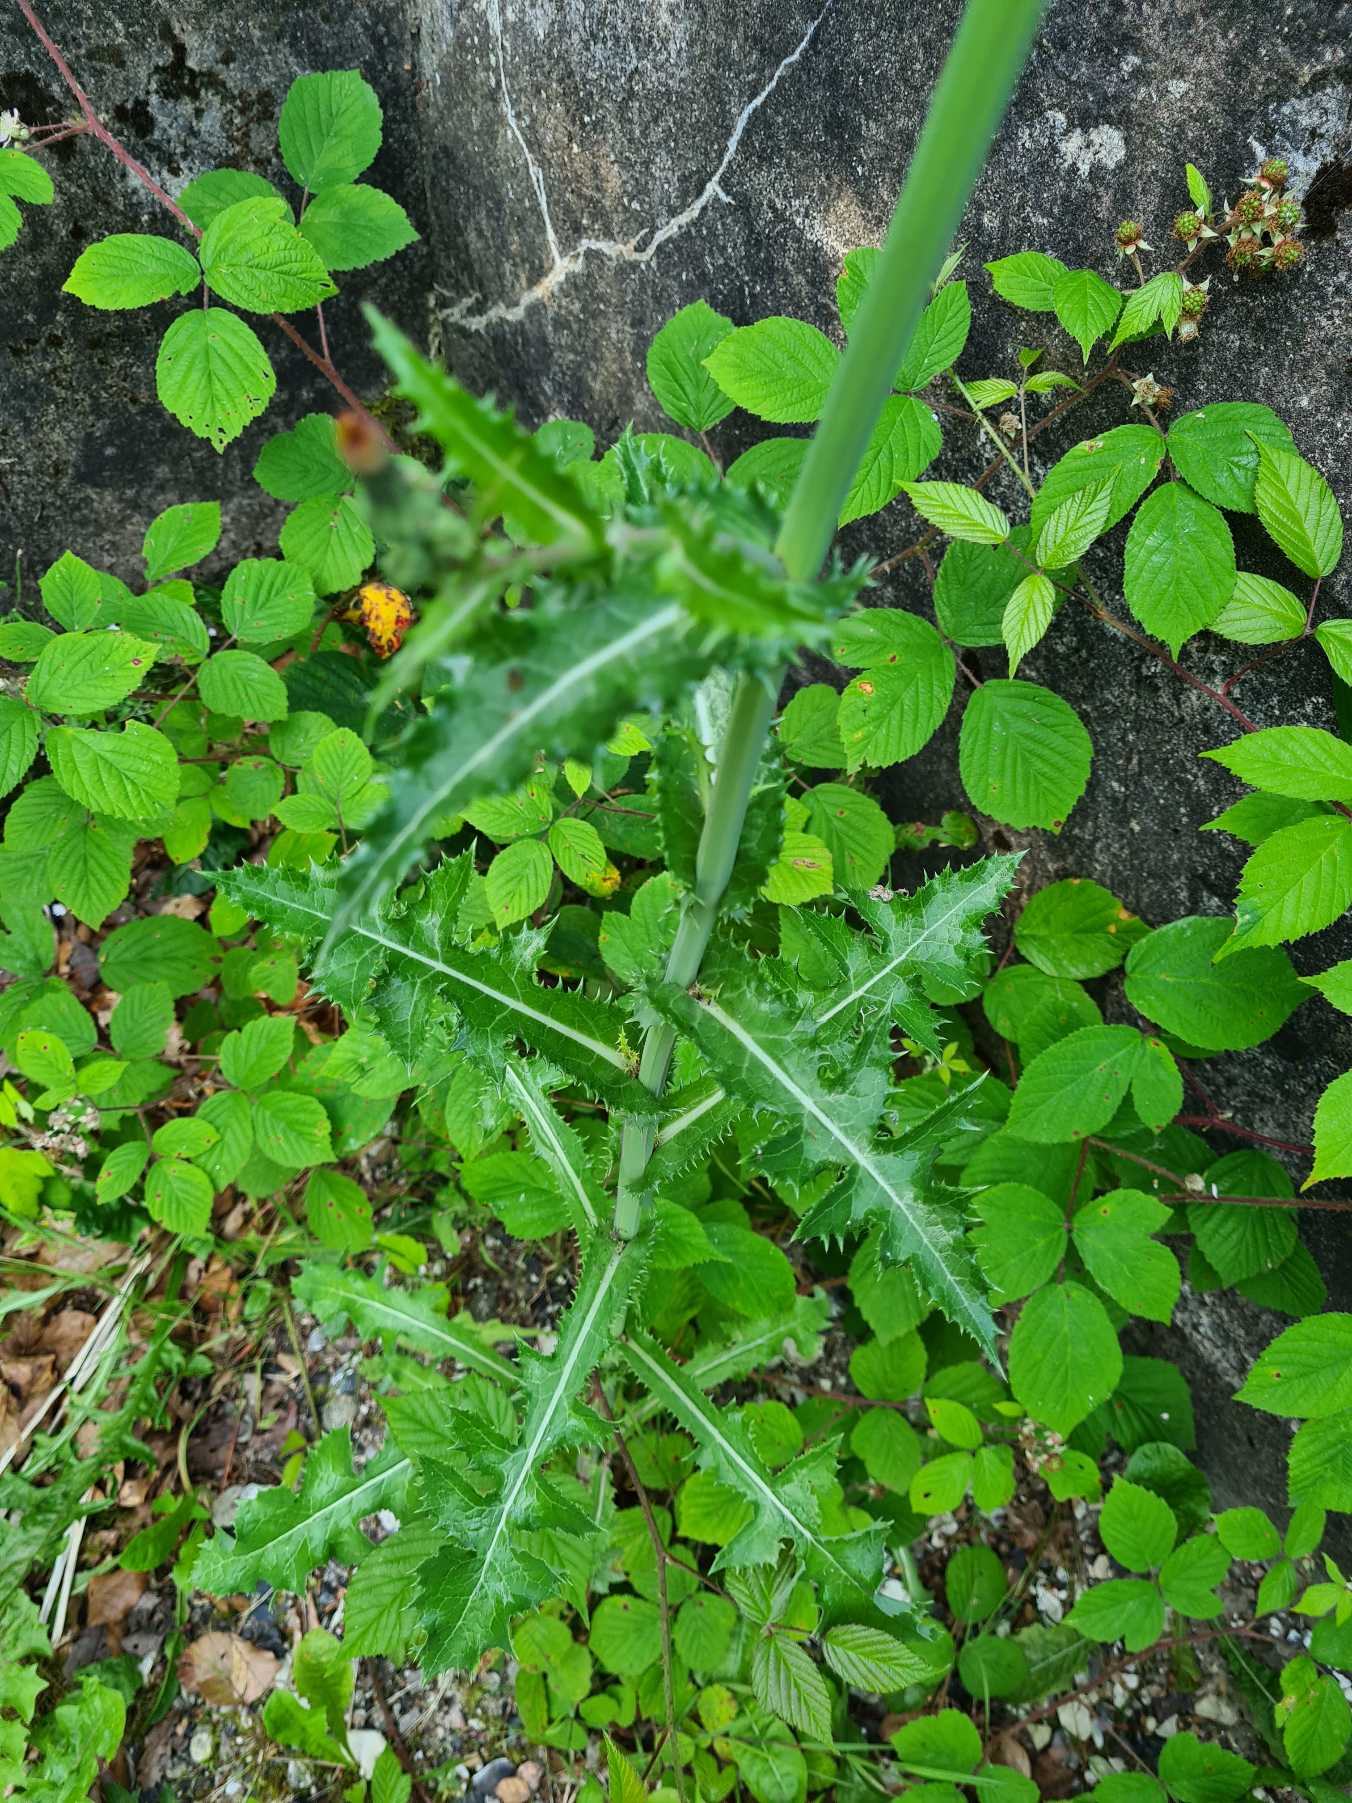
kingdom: Plantae
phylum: Tracheophyta
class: Magnoliopsida
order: Asterales
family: Asteraceae
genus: Sonchus
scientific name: Sonchus asper
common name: Ru svinemælk
